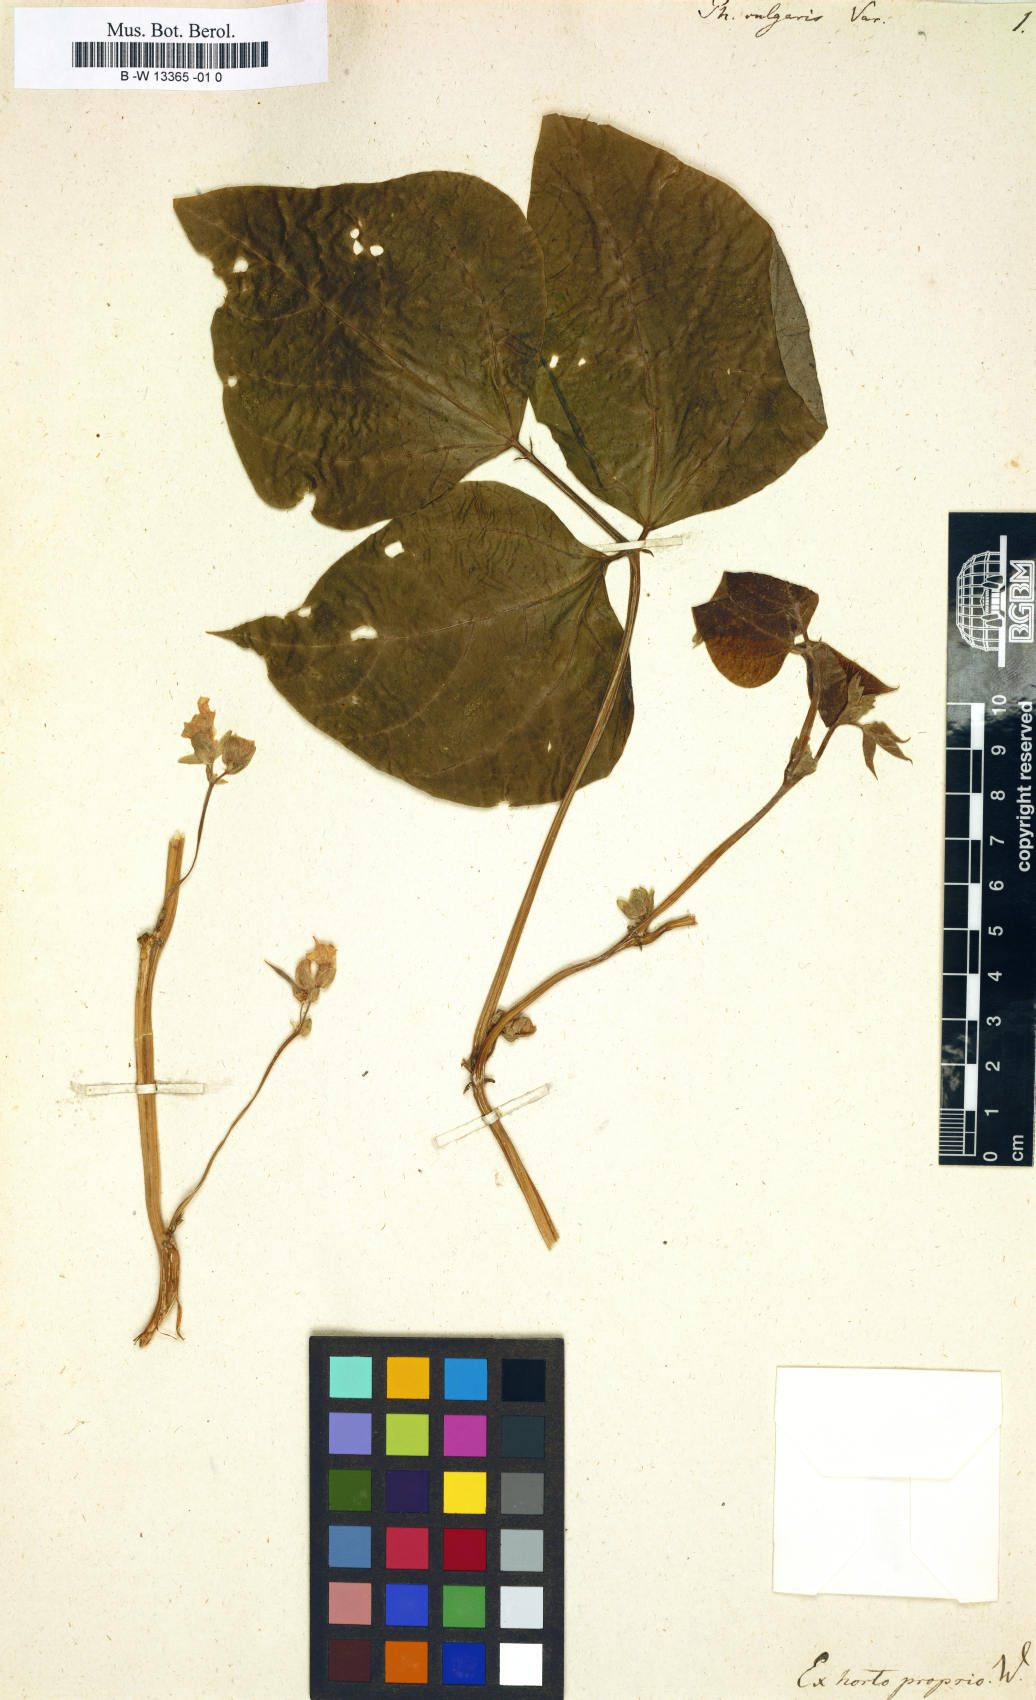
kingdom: Plantae
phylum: Tracheophyta
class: Magnoliopsida
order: Fabales
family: Fabaceae
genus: Phaseolus
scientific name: Phaseolus vulgaris
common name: Bean
